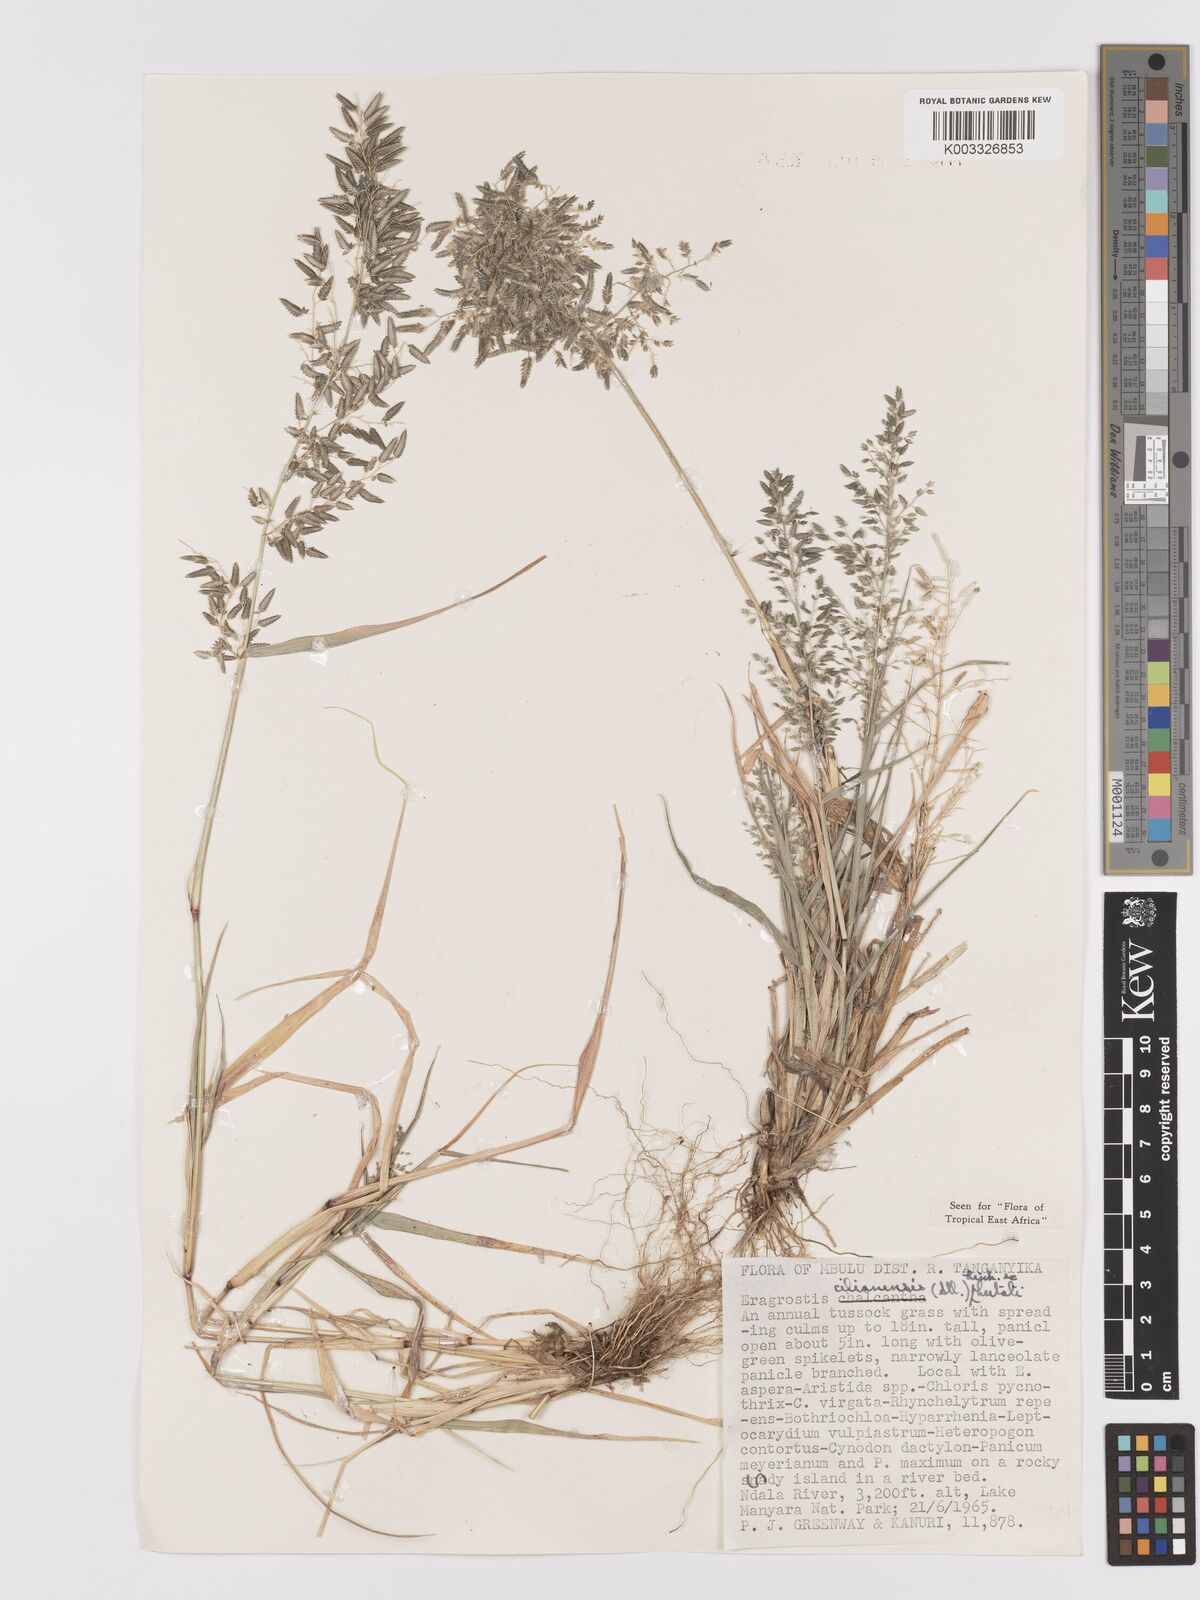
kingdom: Plantae
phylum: Tracheophyta
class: Liliopsida
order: Poales
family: Poaceae
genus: Eragrostis
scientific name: Eragrostis cilianensis
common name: Stinkgrass
